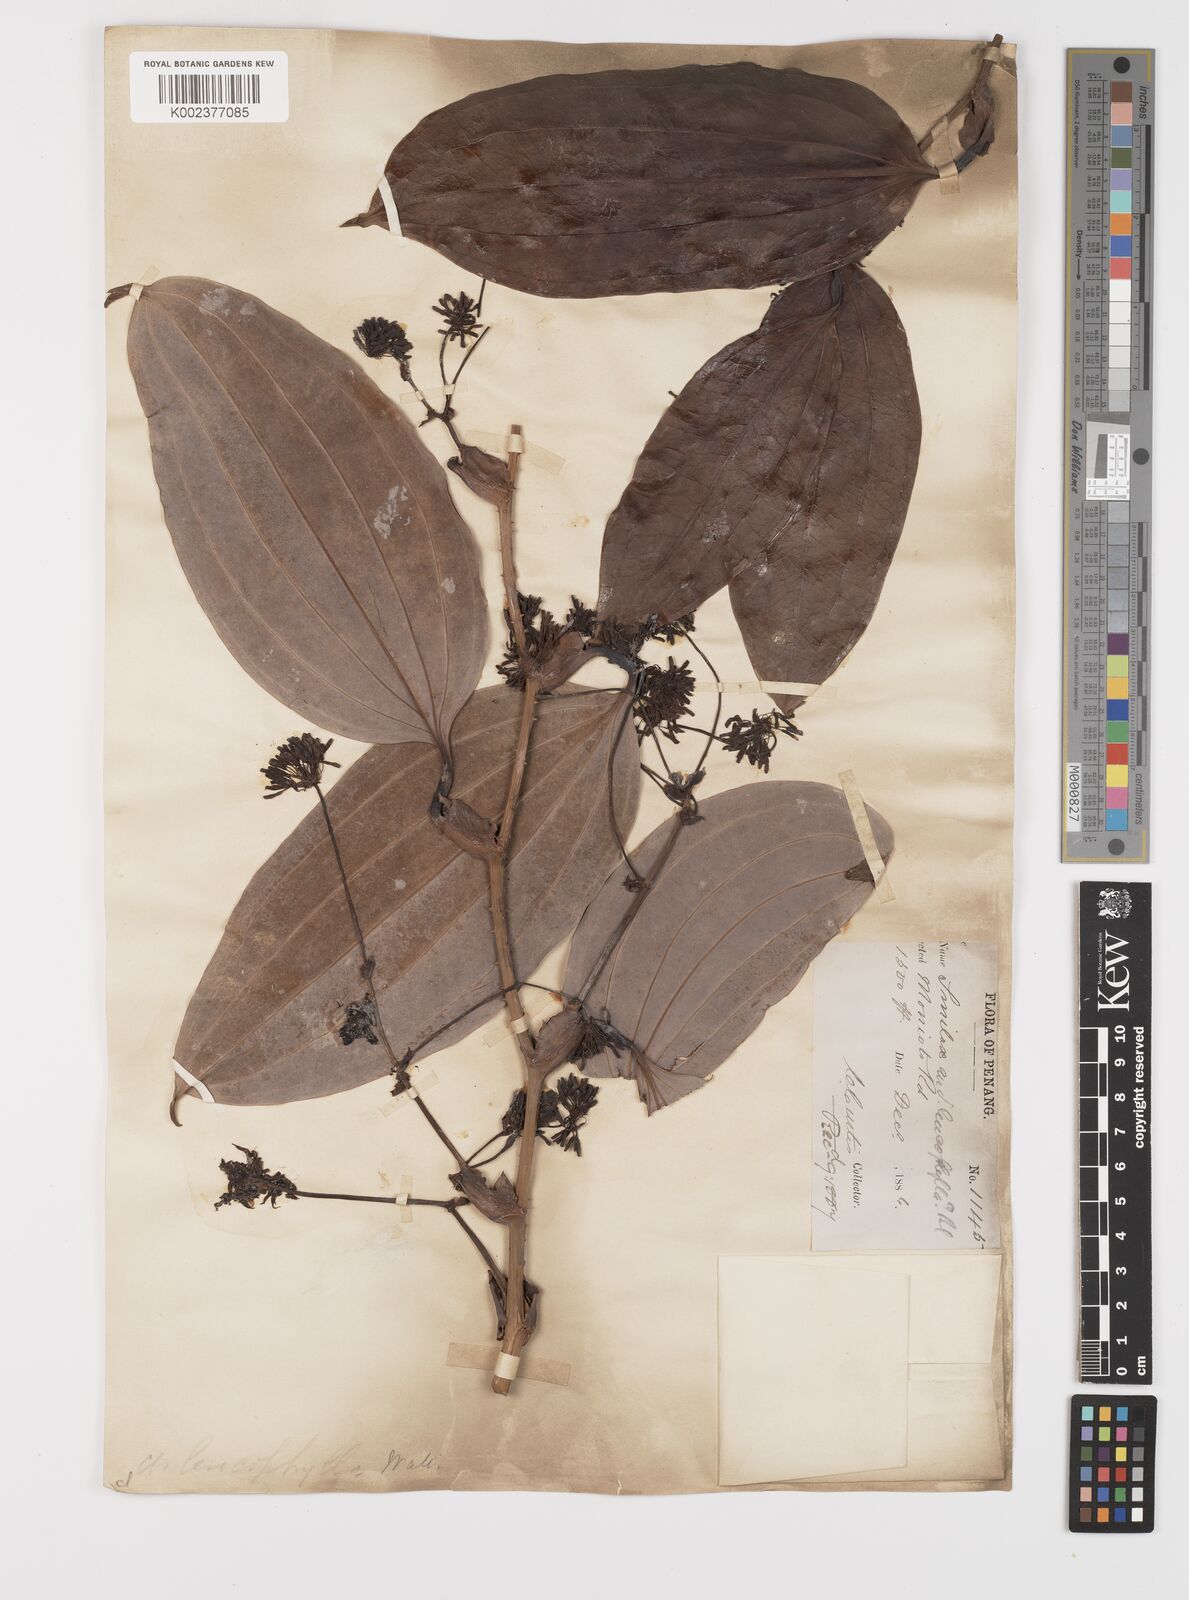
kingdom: Plantae
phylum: Tracheophyta
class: Liliopsida
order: Liliales
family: Smilacaceae
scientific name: Smilacaceae
